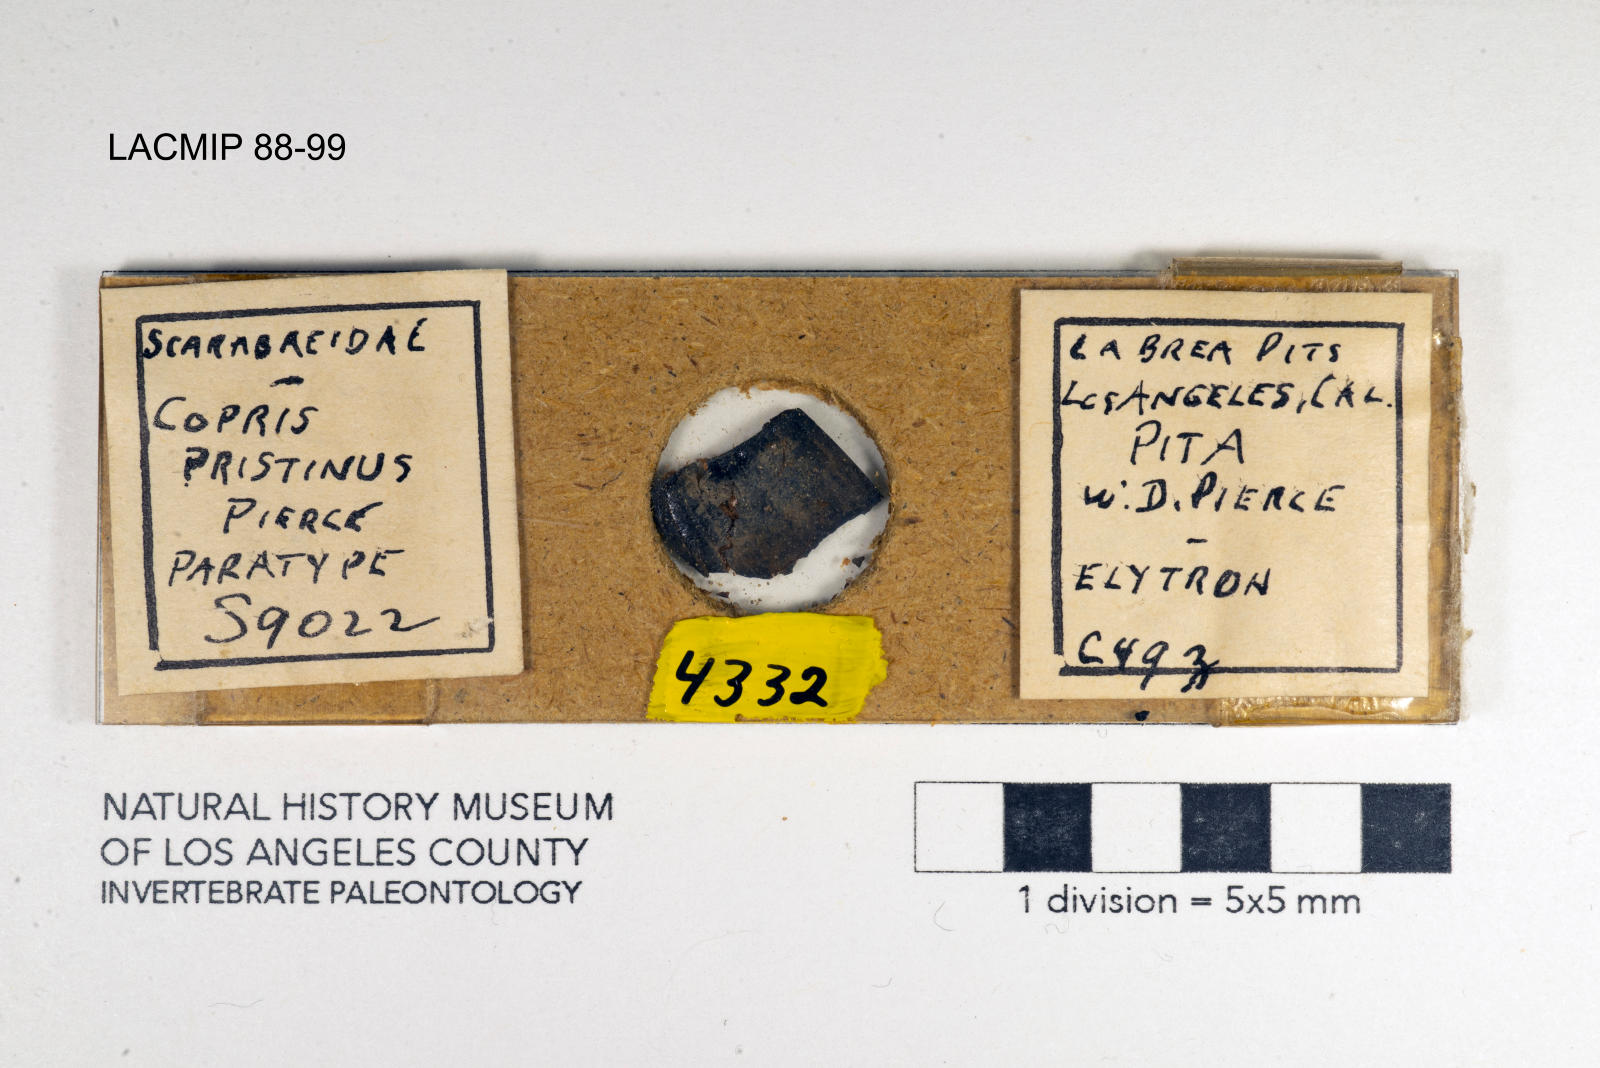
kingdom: Animalia
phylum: Arthropoda
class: Insecta
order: Coleoptera
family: Scarabaeidae
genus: Copris
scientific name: Copris pristinus
